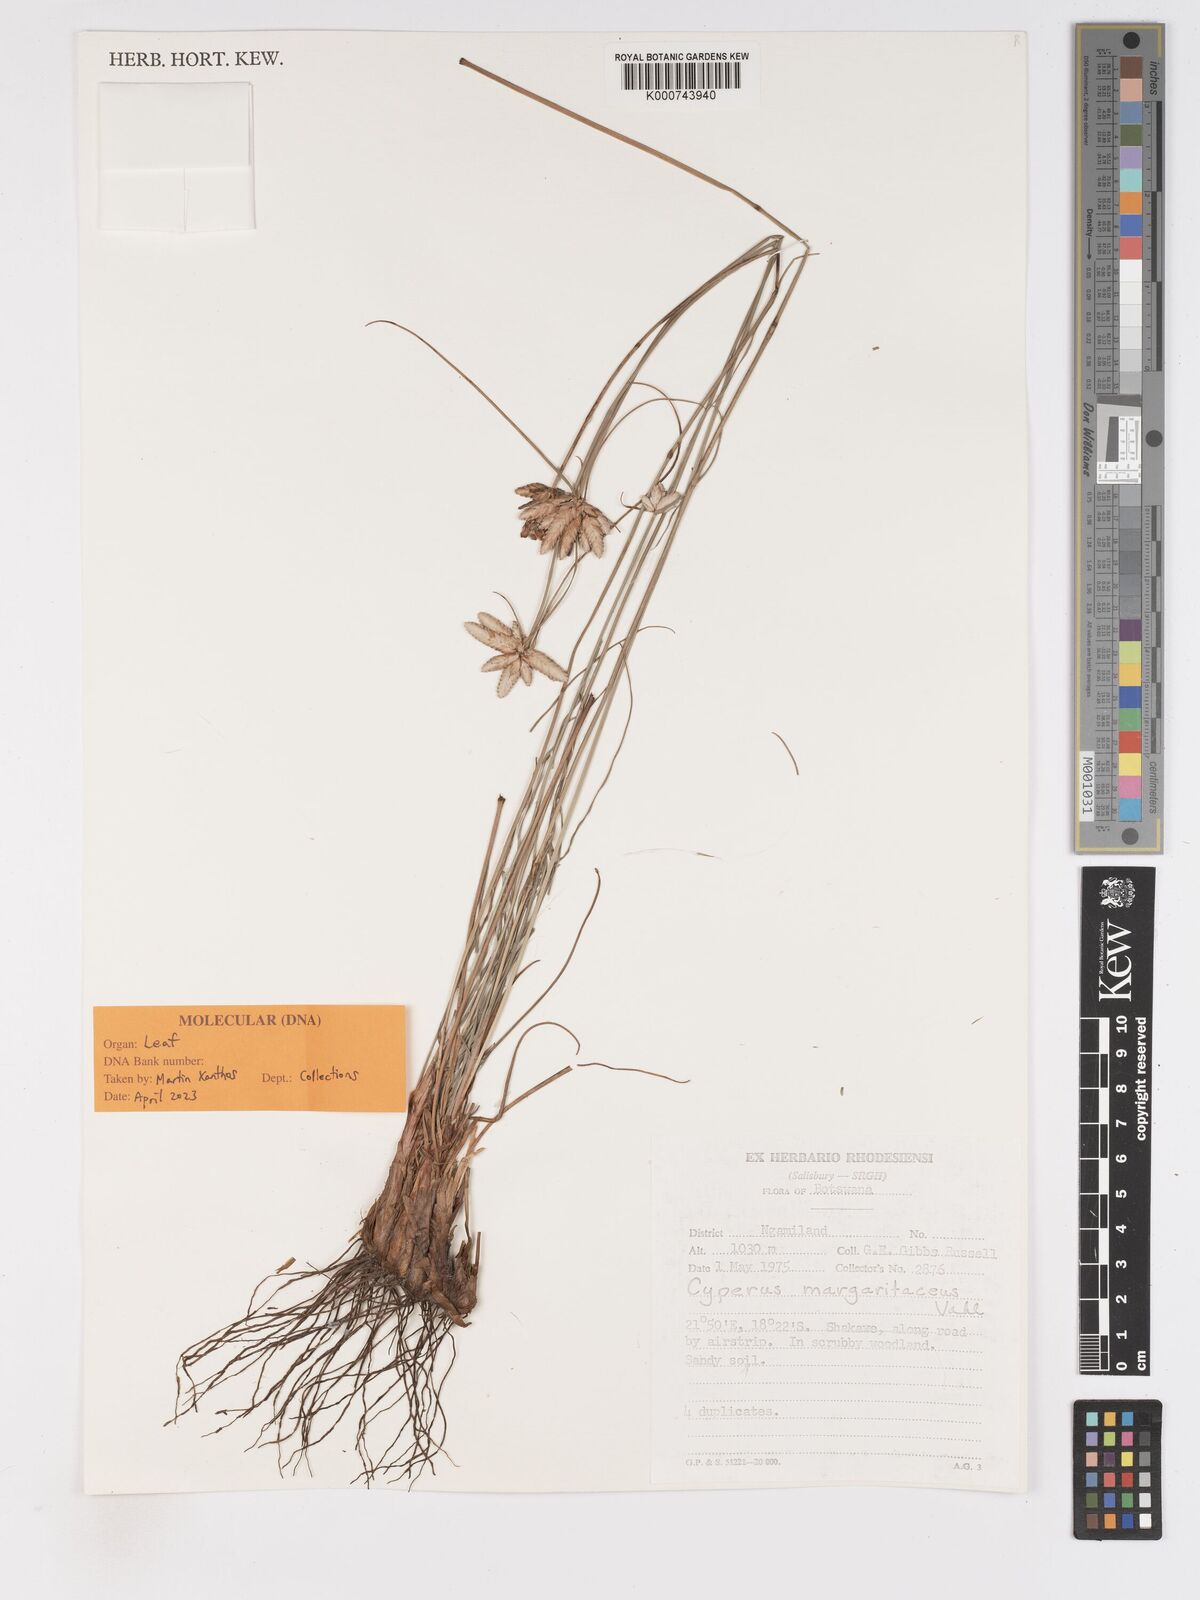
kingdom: Plantae
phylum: Tracheophyta
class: Liliopsida
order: Poales
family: Cyperaceae
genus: Cyperus
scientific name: Cyperus margaritaceus
